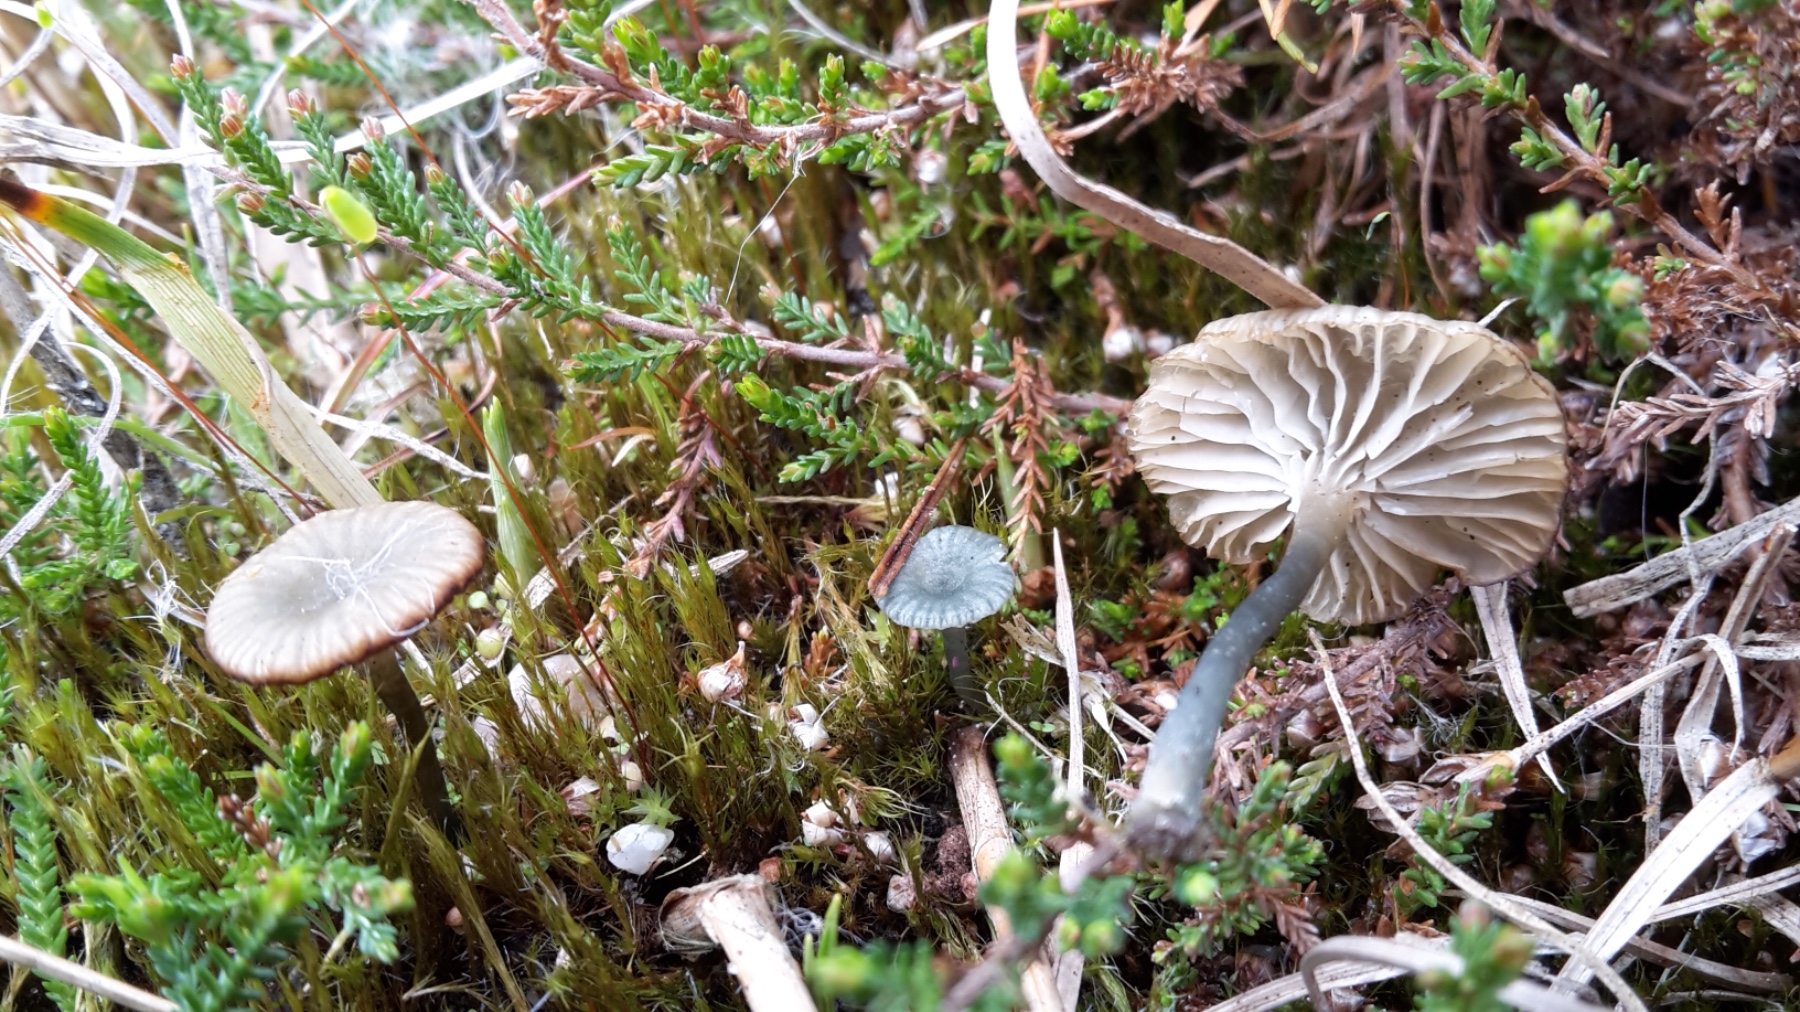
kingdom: Fungi
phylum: Basidiomycota
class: Agaricomycetes
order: Agaricales
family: Hygrophoraceae
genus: Arrhenia
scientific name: Arrhenia chlorocyanea
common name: blågrøn fontænehat
